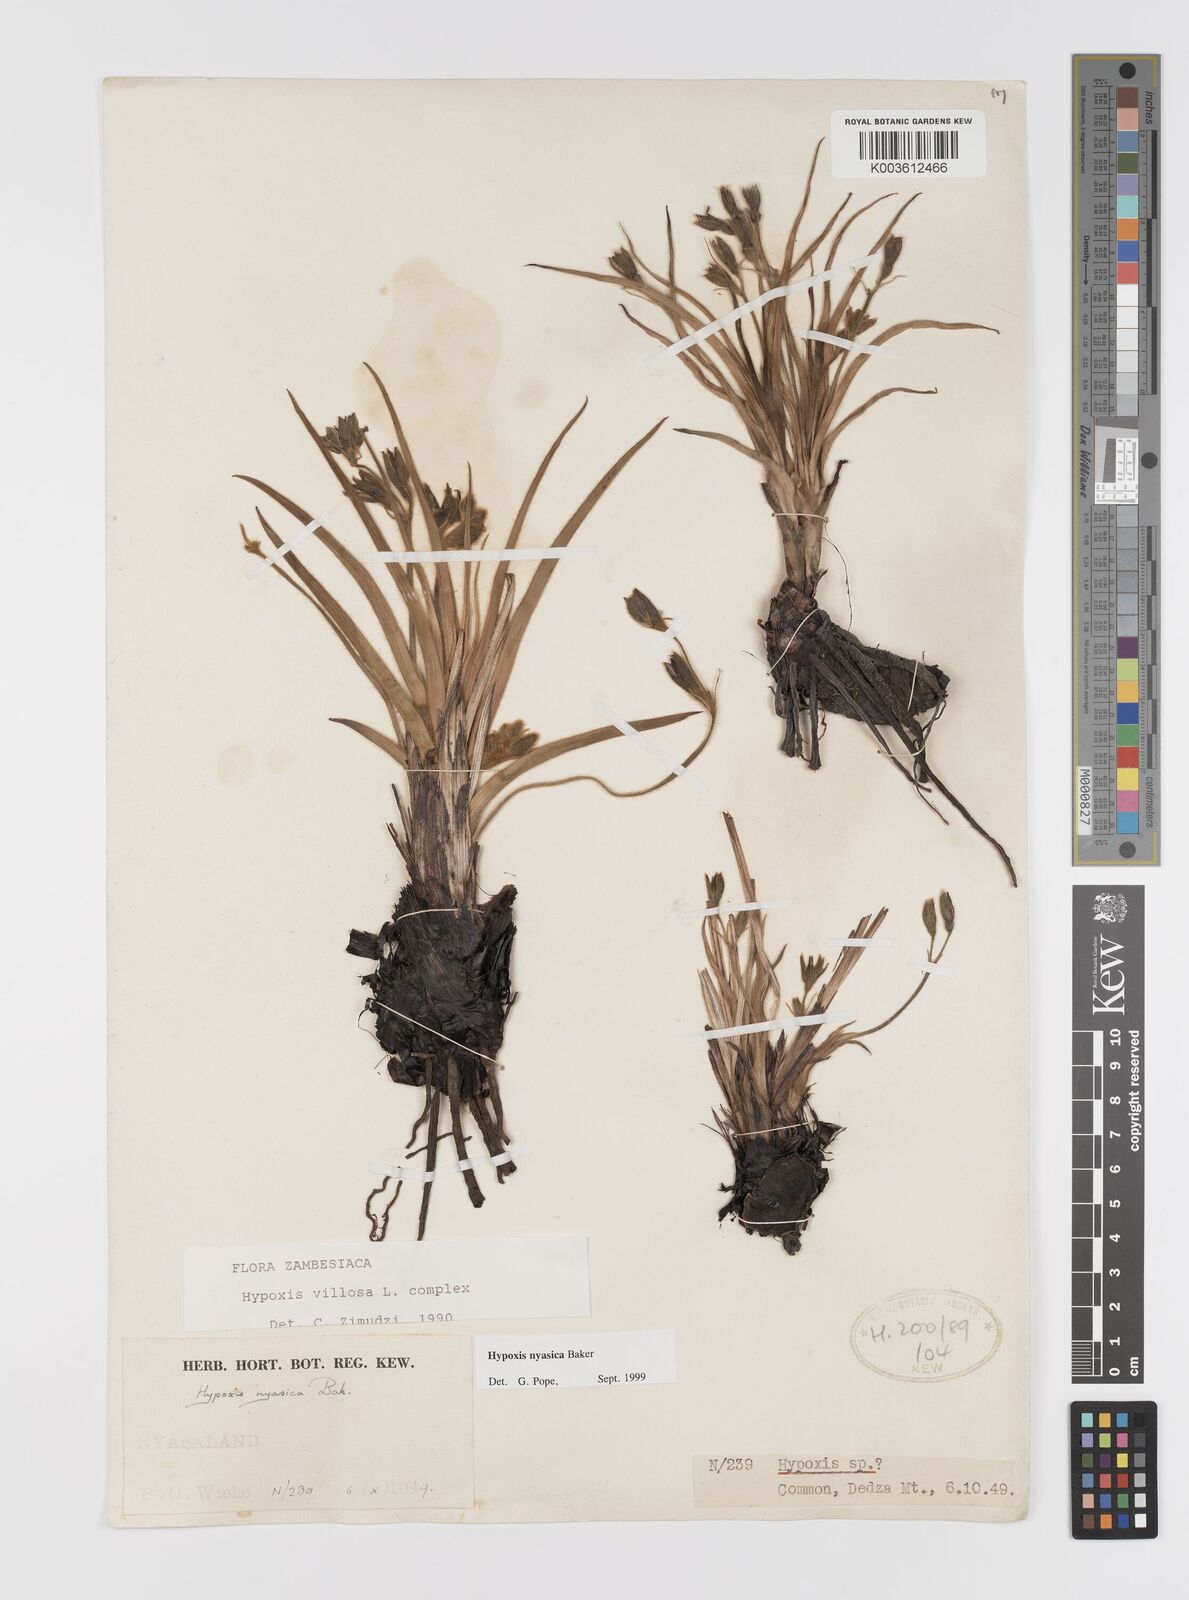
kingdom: Plantae
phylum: Tracheophyta
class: Liliopsida
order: Asparagales
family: Hypoxidaceae
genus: Hypoxis
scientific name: Hypoxis nyasica
